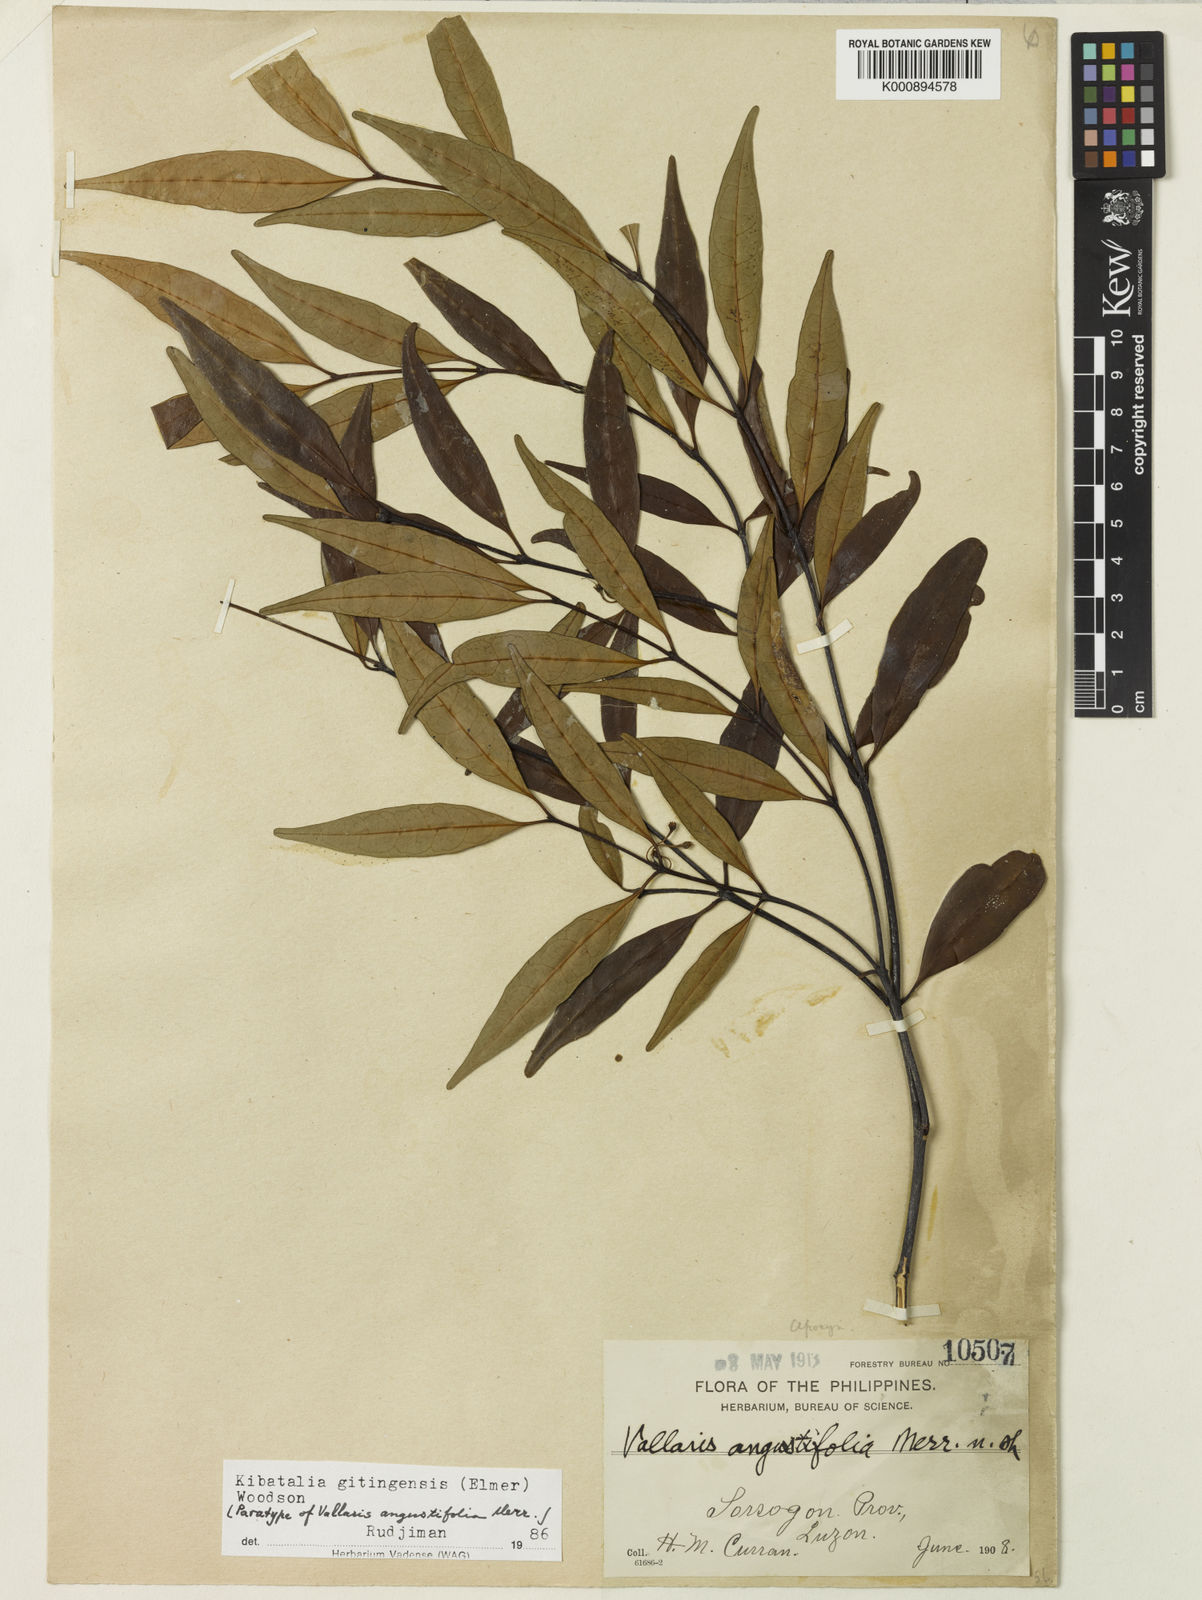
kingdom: Plantae
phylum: Tracheophyta
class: Magnoliopsida
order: Gentianales
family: Apocynaceae
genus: Kibatalia
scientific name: Kibatalia gitingensis
